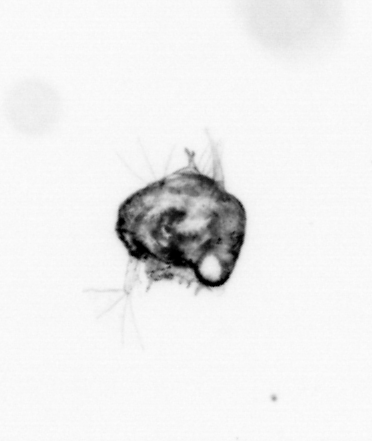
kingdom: Animalia
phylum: Arthropoda
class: Malacostraca
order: Decapoda
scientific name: Decapoda
